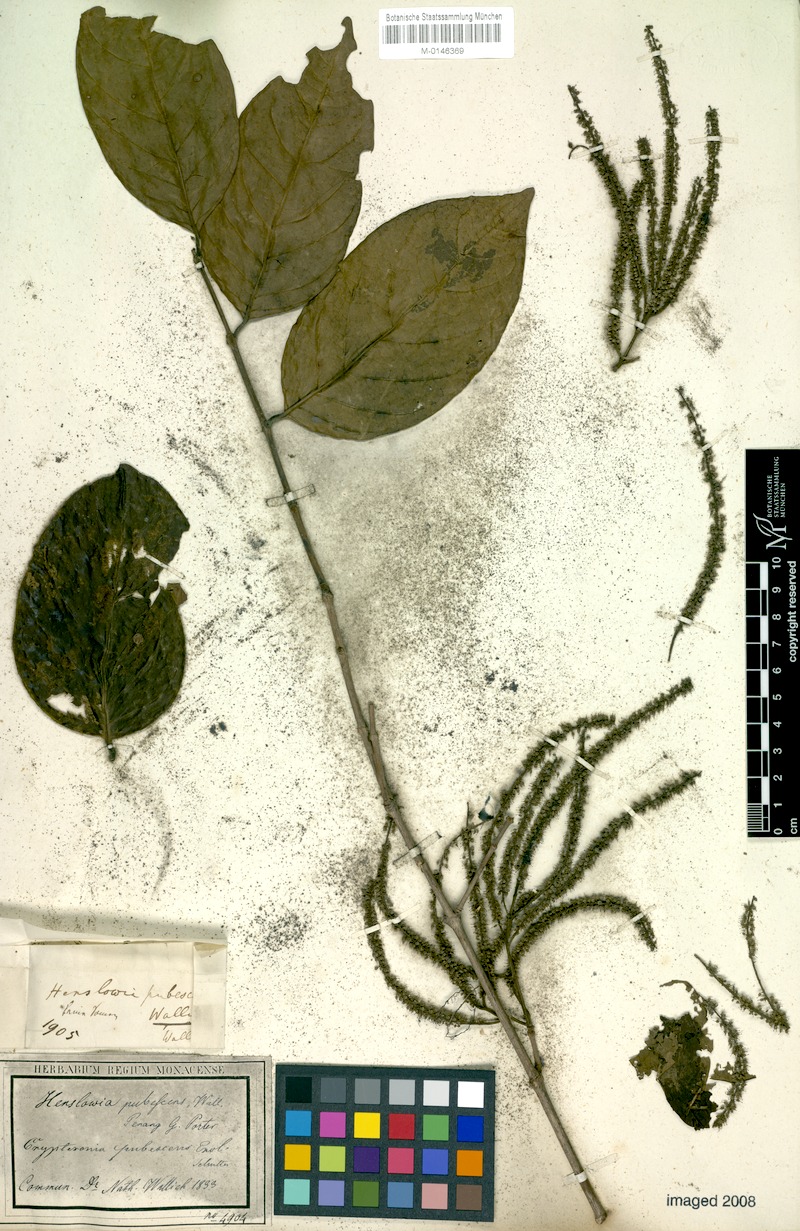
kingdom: Plantae
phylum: Tracheophyta
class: Magnoliopsida
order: Myrtales
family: Crypteroniaceae
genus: Crypteronia
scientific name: Crypteronia paniculata
